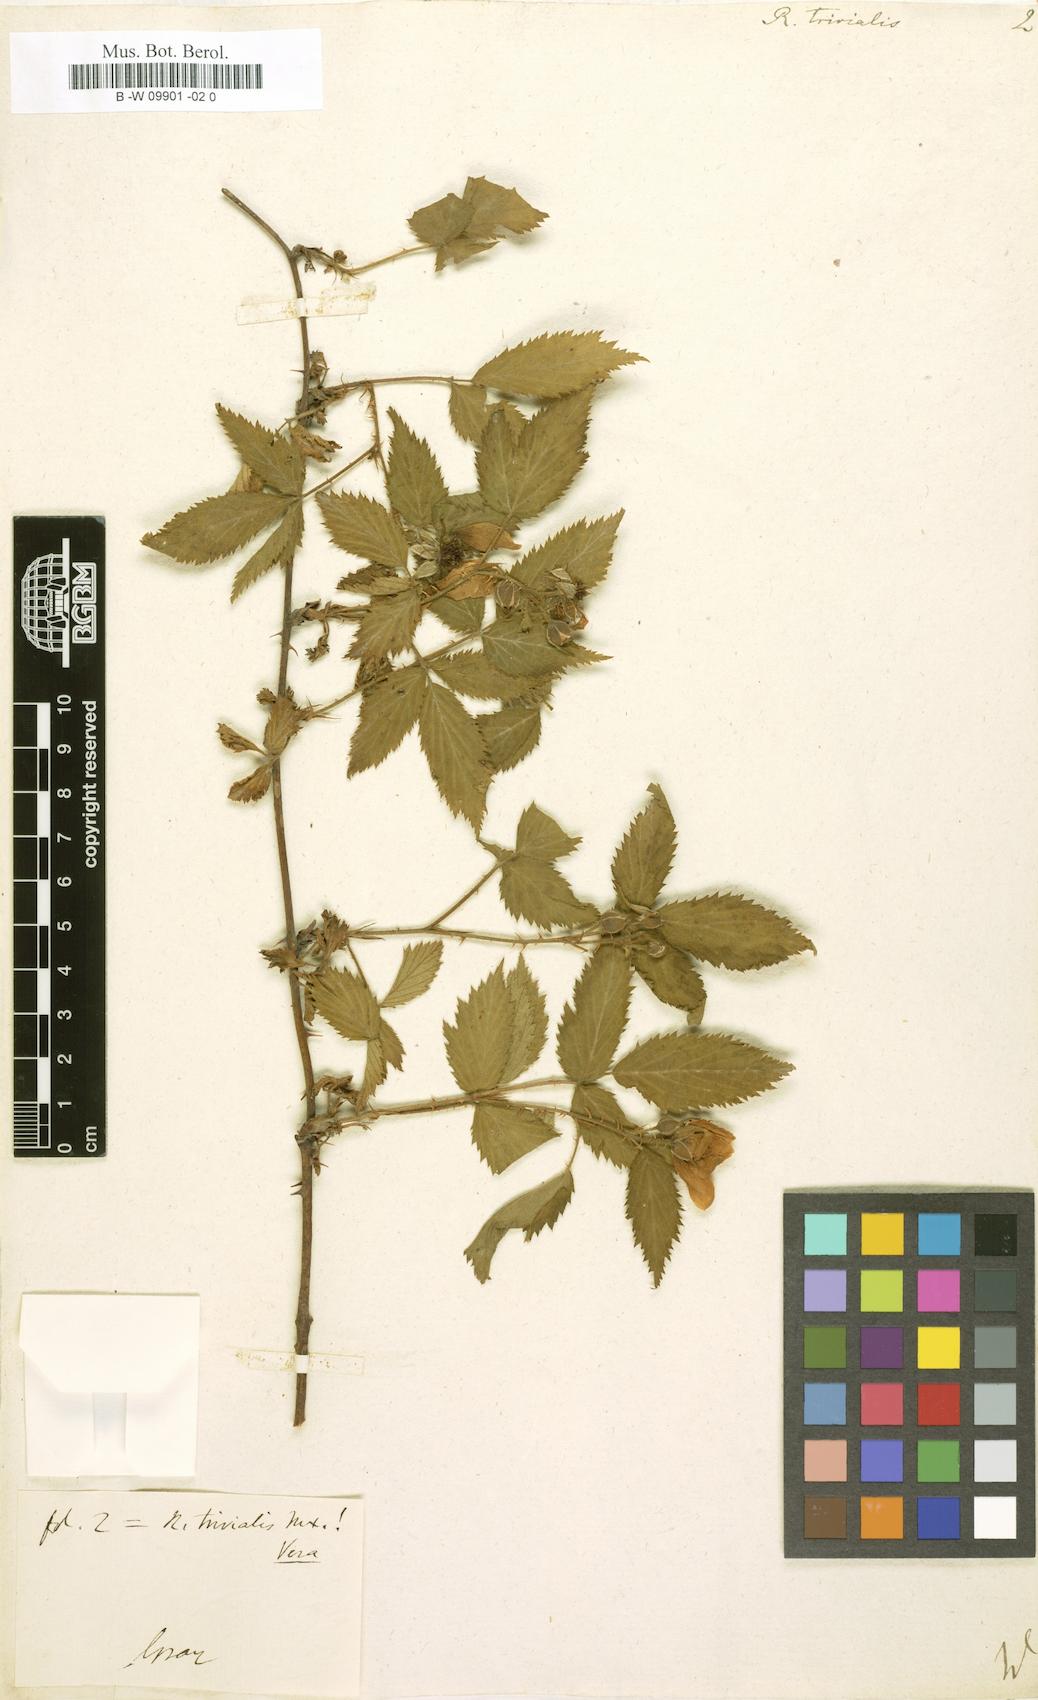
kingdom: Plantae
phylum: Tracheophyta
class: Magnoliopsida
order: Rosales
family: Rosaceae
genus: Rubus
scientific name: Rubus trivialis
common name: Southern dewberry
